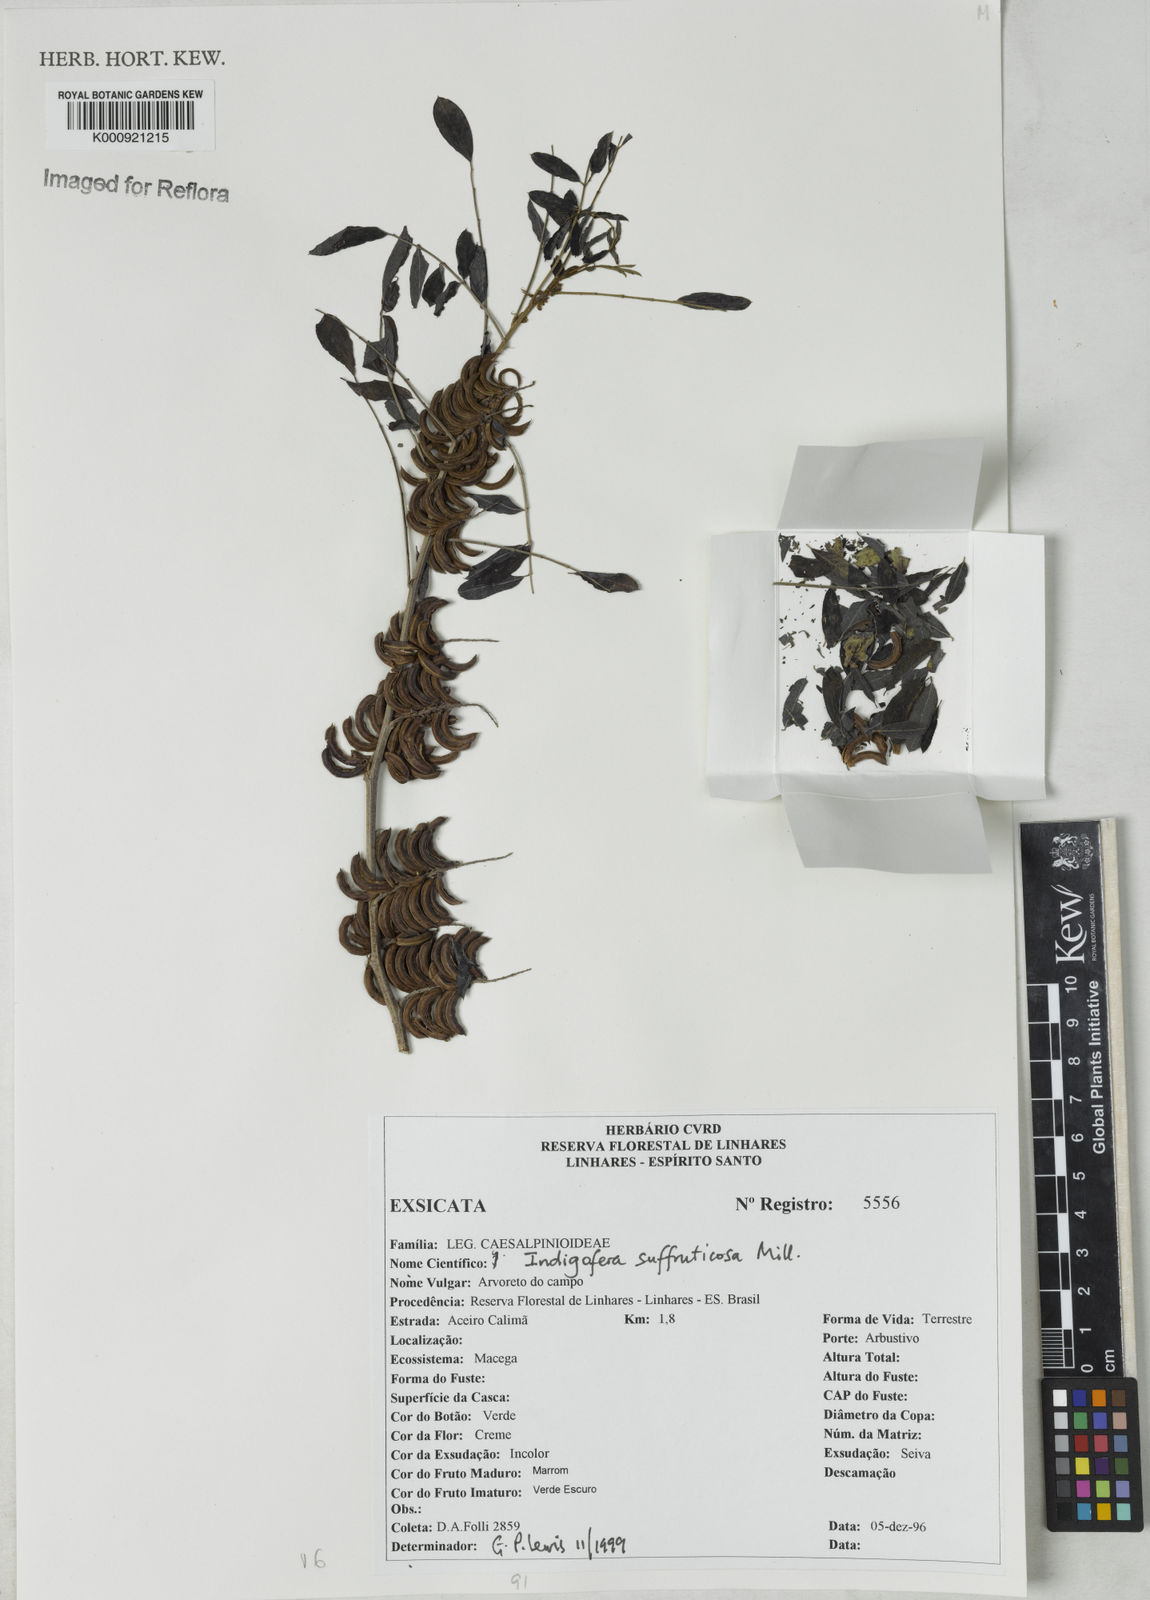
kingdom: Plantae
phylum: Tracheophyta
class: Magnoliopsida
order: Fabales
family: Fabaceae
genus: Indigofera
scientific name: Indigofera suffruticosa
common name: Anil de pasto
